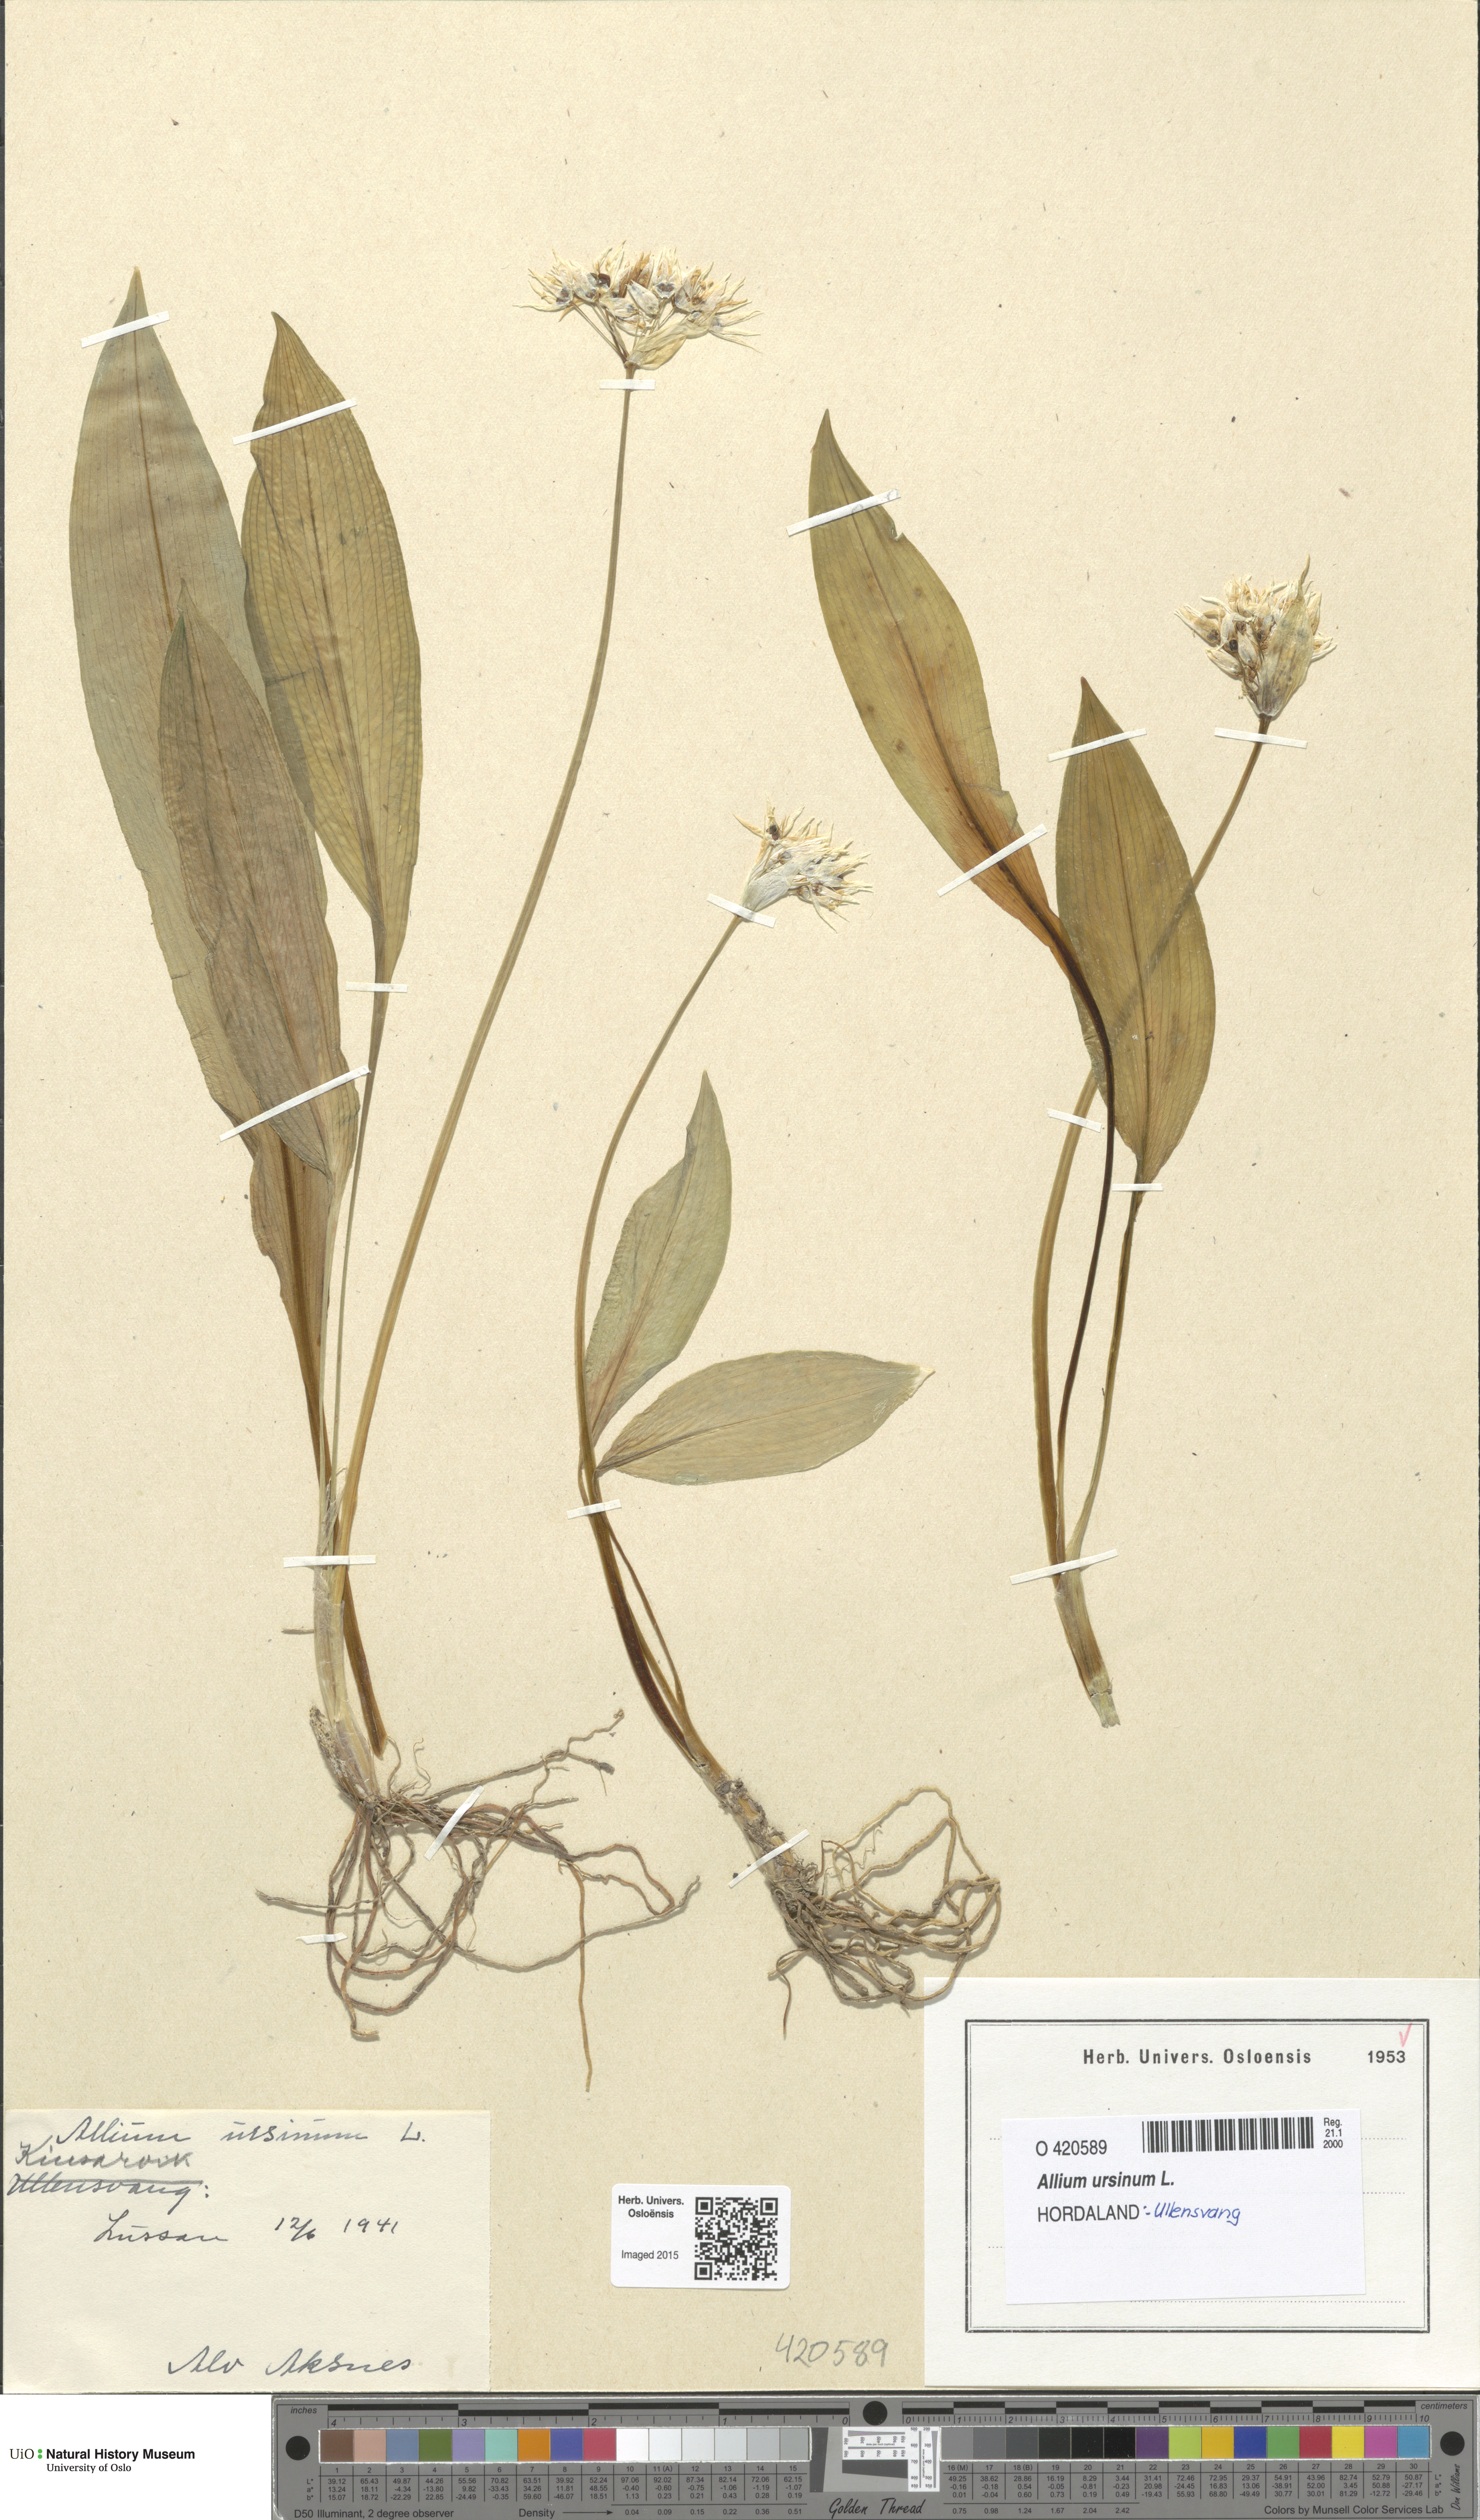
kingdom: Plantae
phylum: Tracheophyta
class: Liliopsida
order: Asparagales
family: Amaryllidaceae
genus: Allium
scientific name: Allium ursinum
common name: Ramsons
